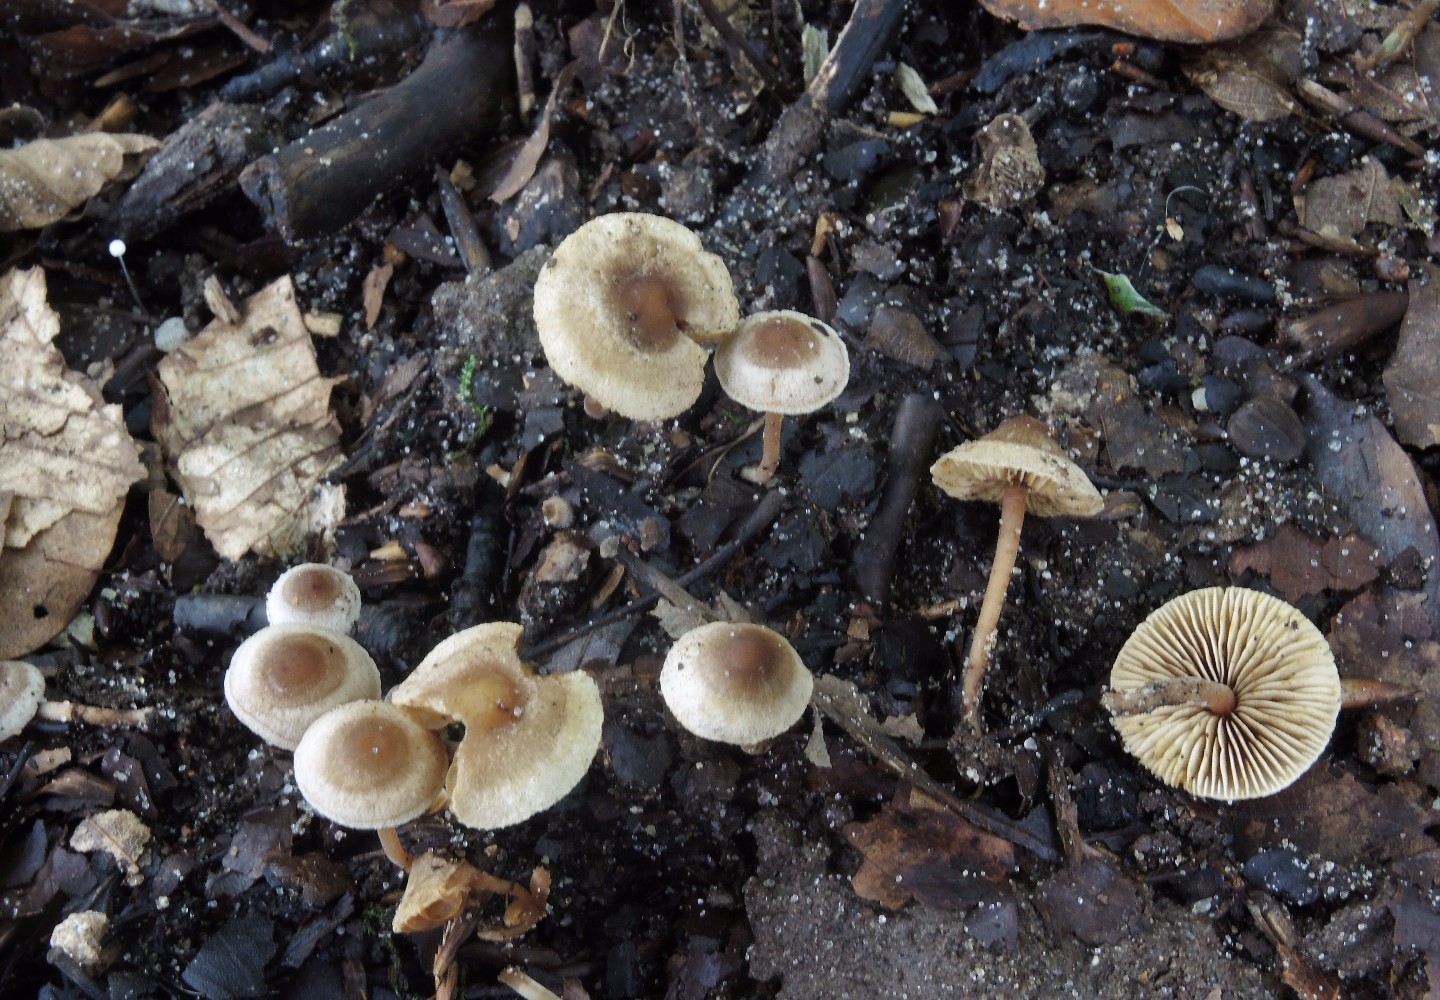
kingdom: Fungi
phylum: Basidiomycota
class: Agaricomycetes
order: Agaricales
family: Inocybaceae
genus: Inocybe
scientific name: Inocybe petiginosa
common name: liden trævlhat
